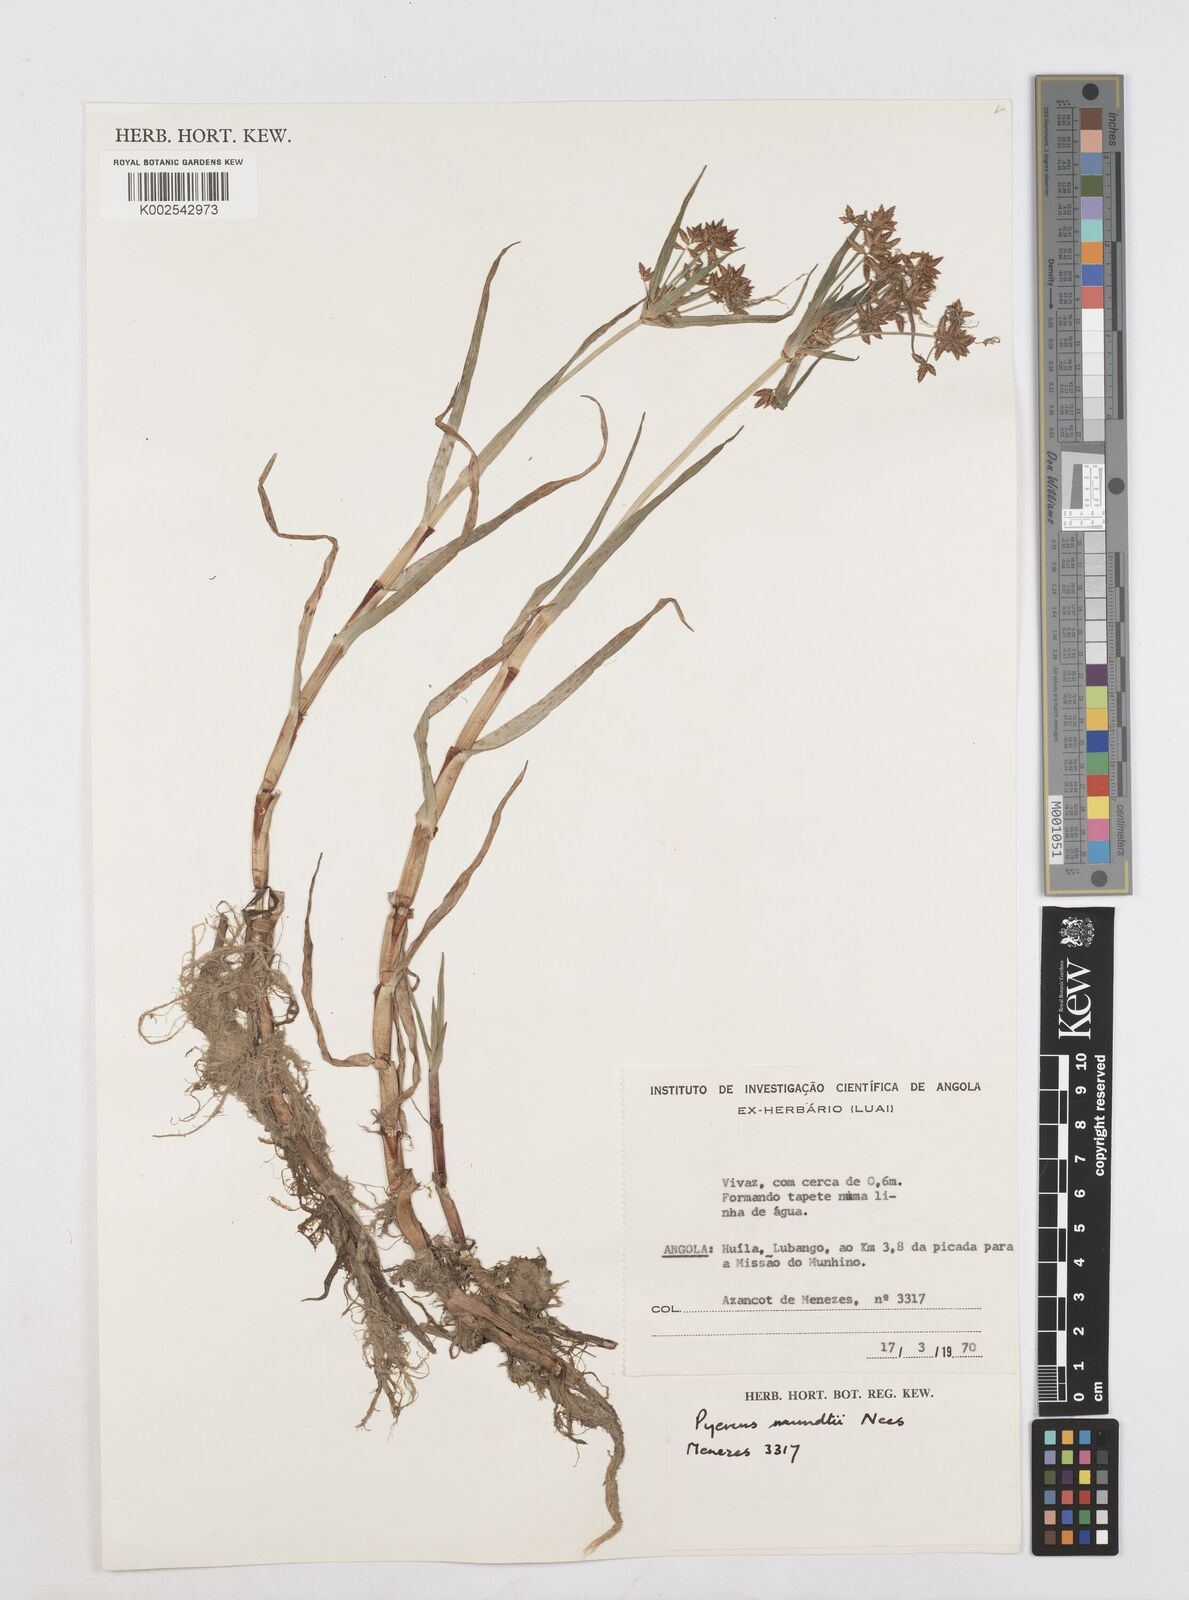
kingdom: Plantae
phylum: Tracheophyta
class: Liliopsida
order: Poales
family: Cyperaceae
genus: Cyperus
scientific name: Cyperus mundii
